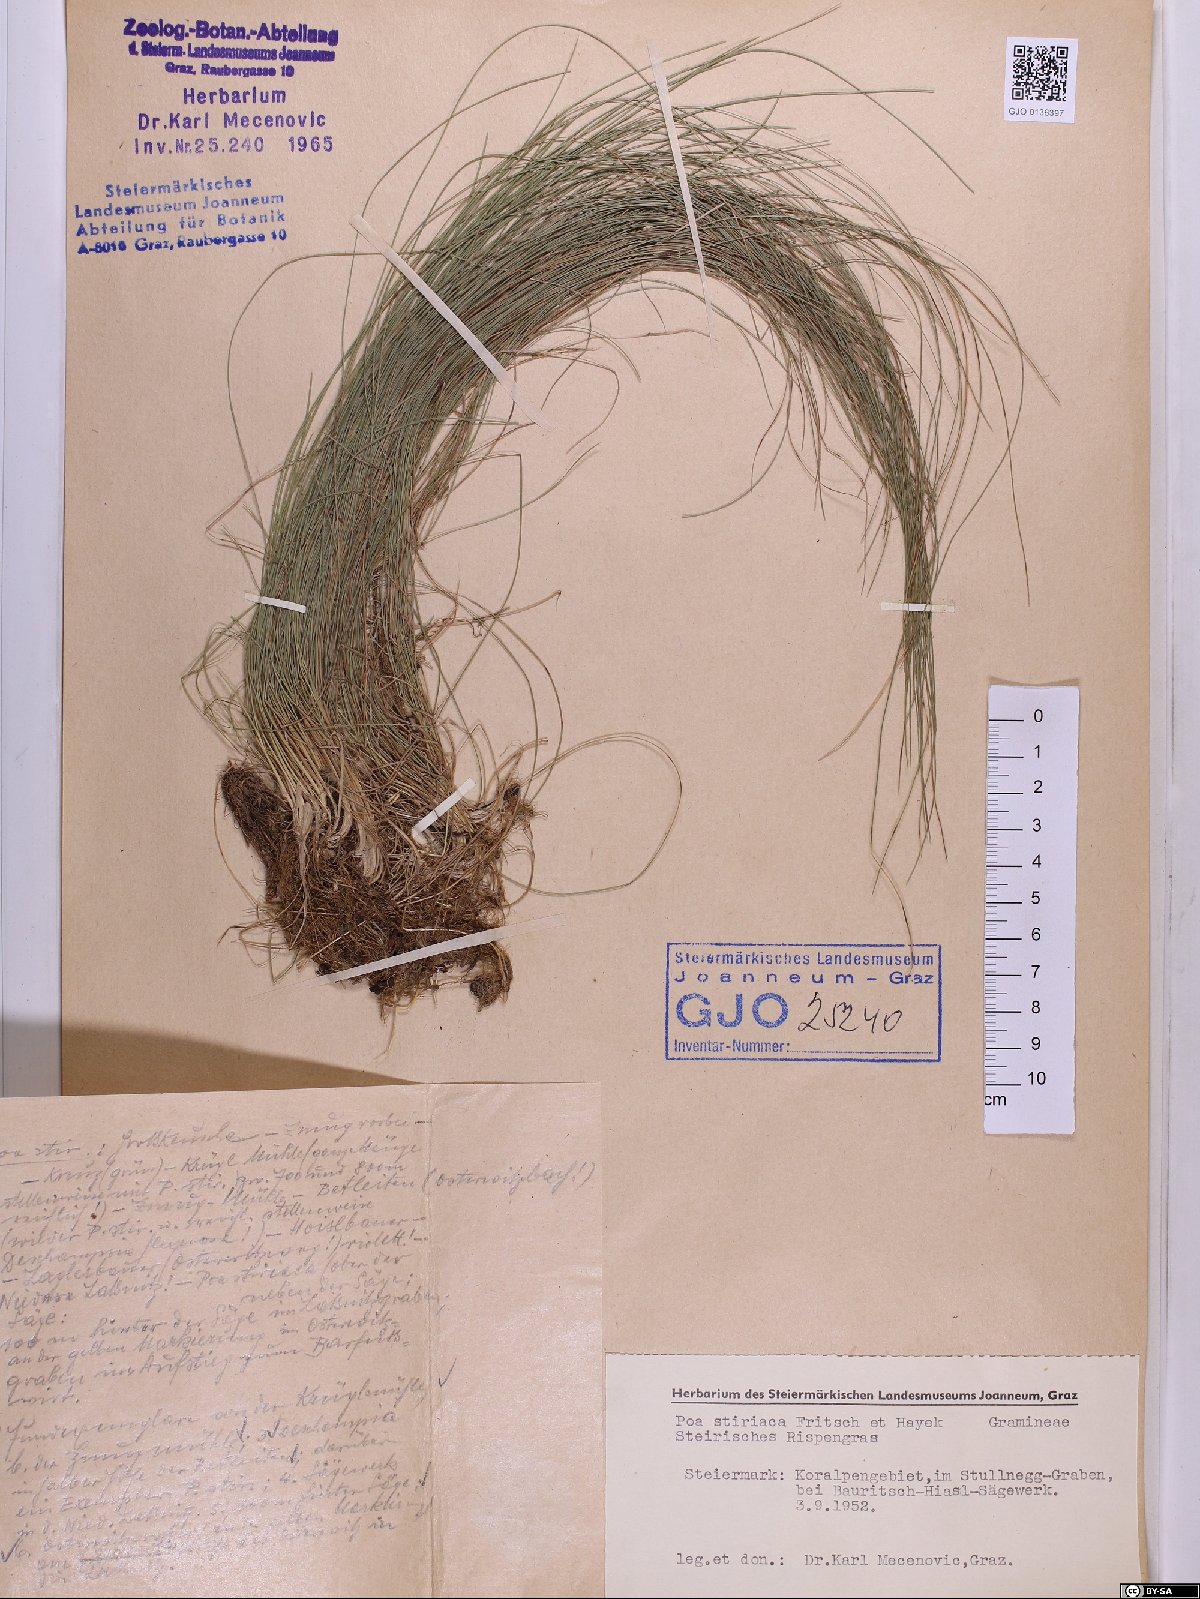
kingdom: Plantae
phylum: Tracheophyta
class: Liliopsida
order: Poales
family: Poaceae
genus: Poa
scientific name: Poa stiriaca
